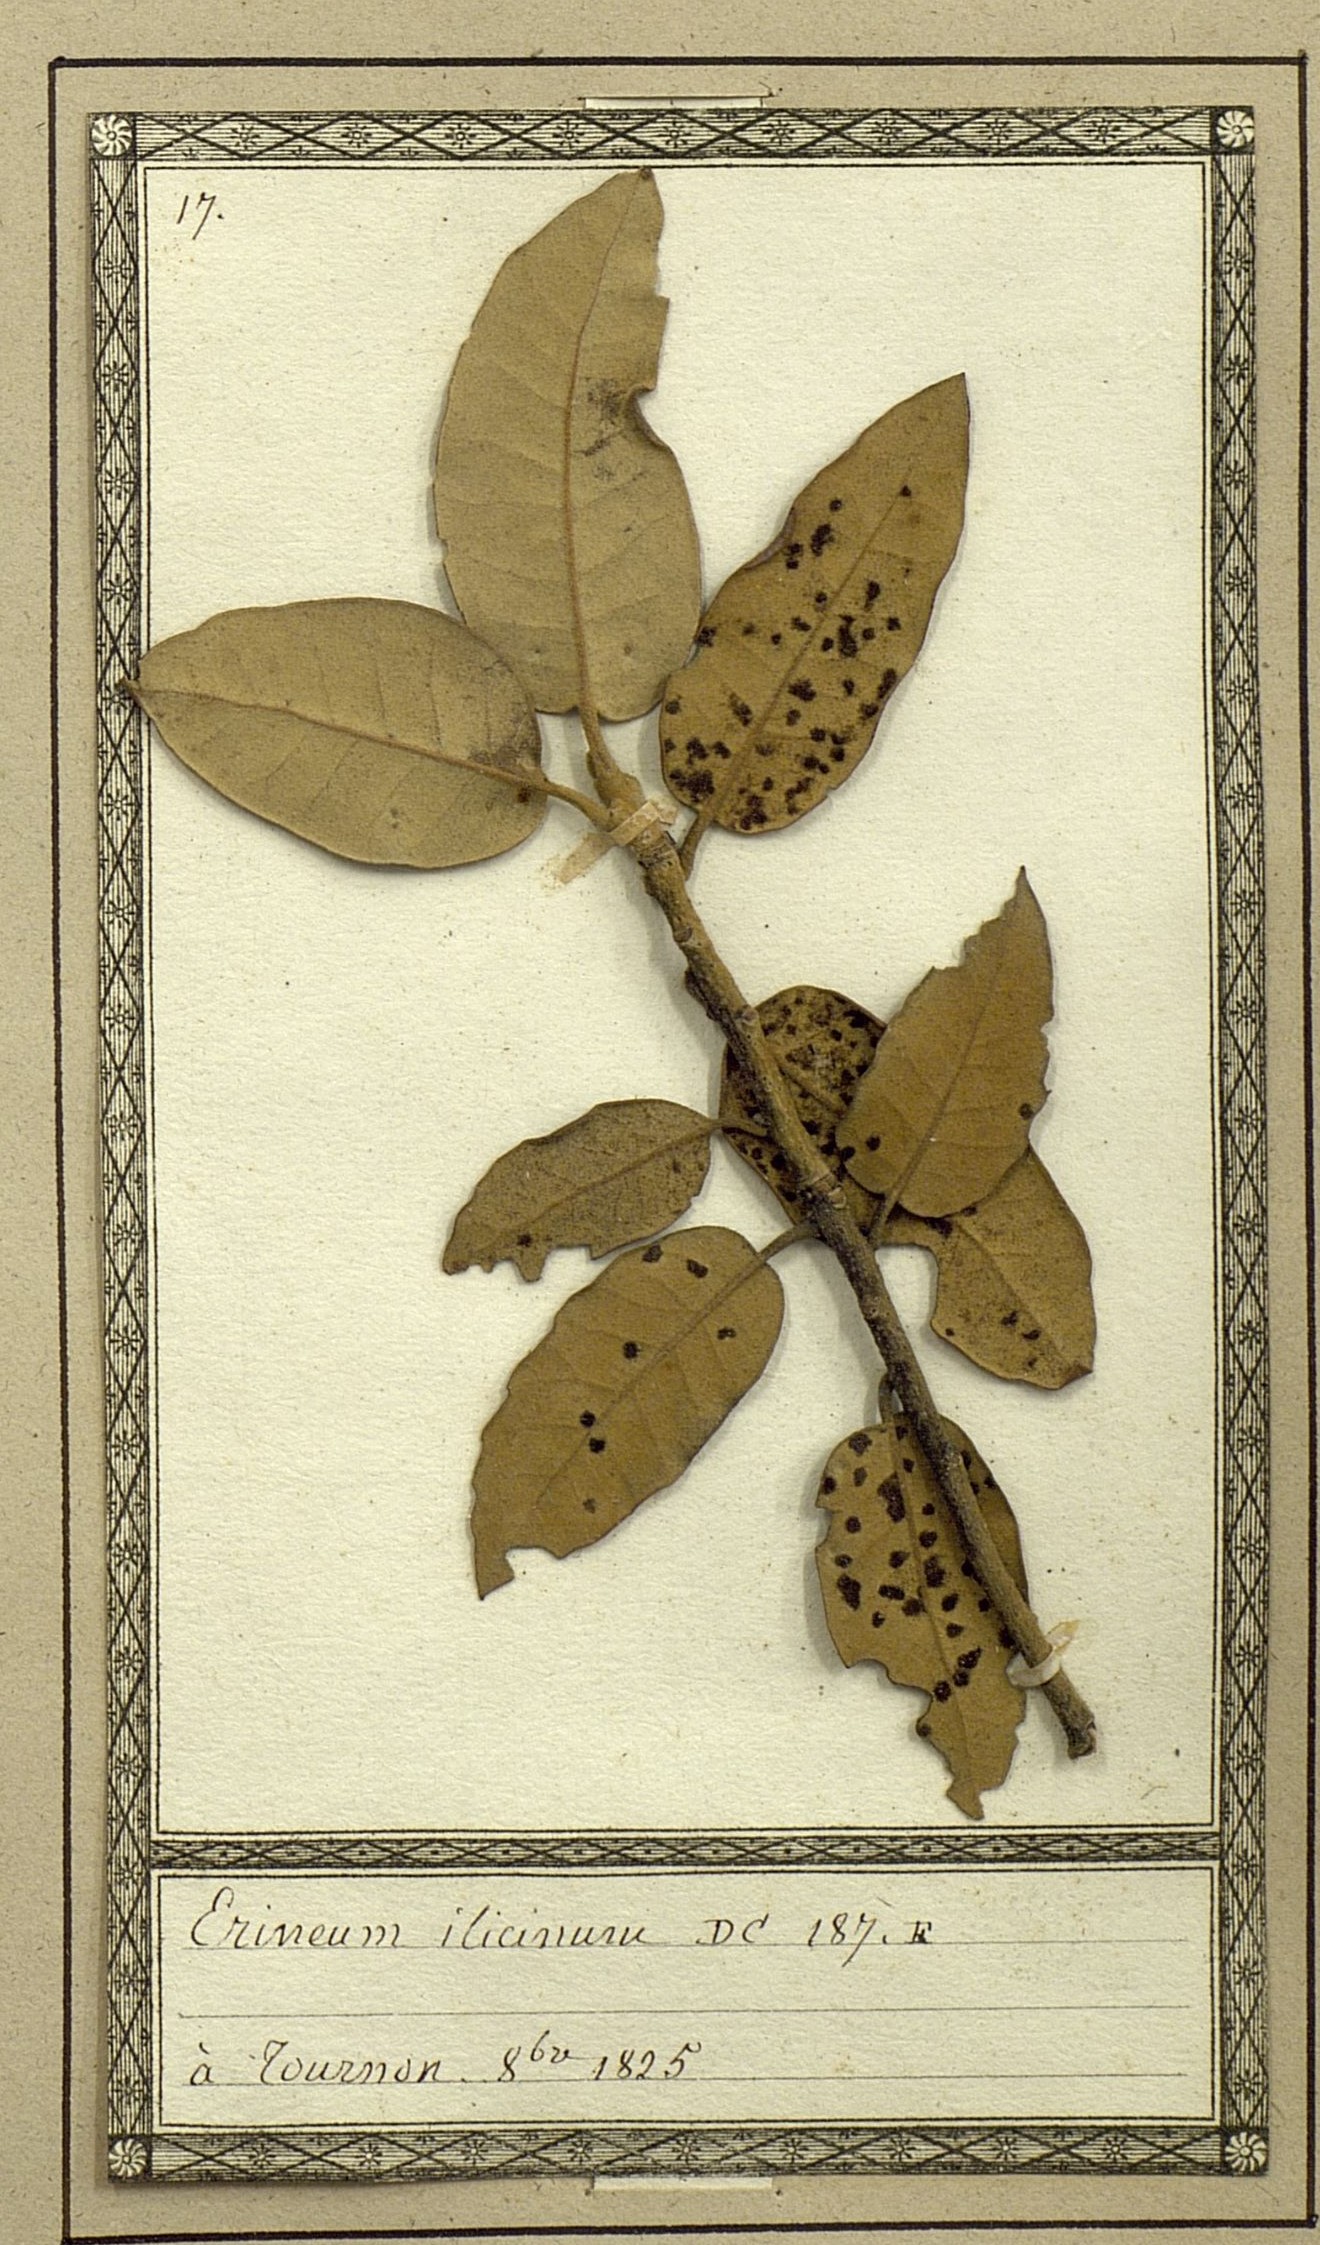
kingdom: Fungi
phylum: Basidiomycota
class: Pucciniomycetes
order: Pucciniales
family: Cronartiaceae
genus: Erineum
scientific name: Erineum
